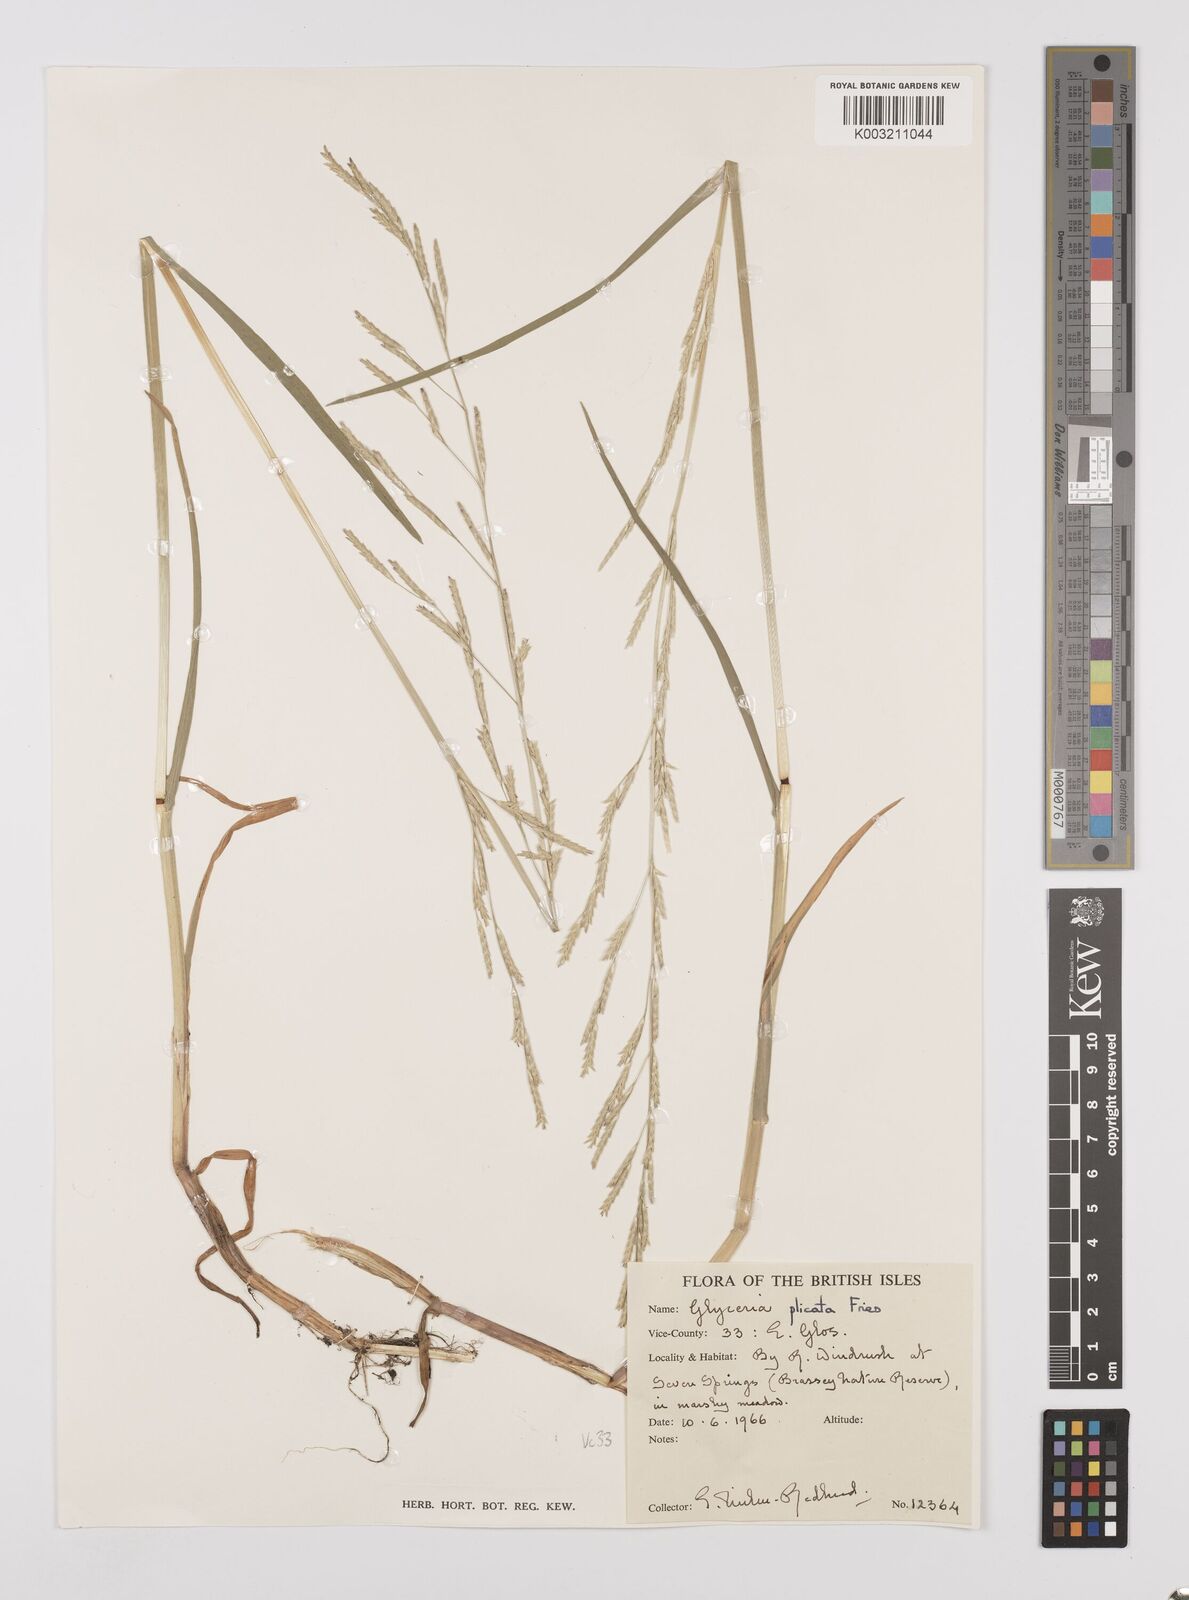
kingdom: Plantae
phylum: Tracheophyta
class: Liliopsida
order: Poales
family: Poaceae
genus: Glyceria
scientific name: Glyceria notata
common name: Plicate sweet-grass
